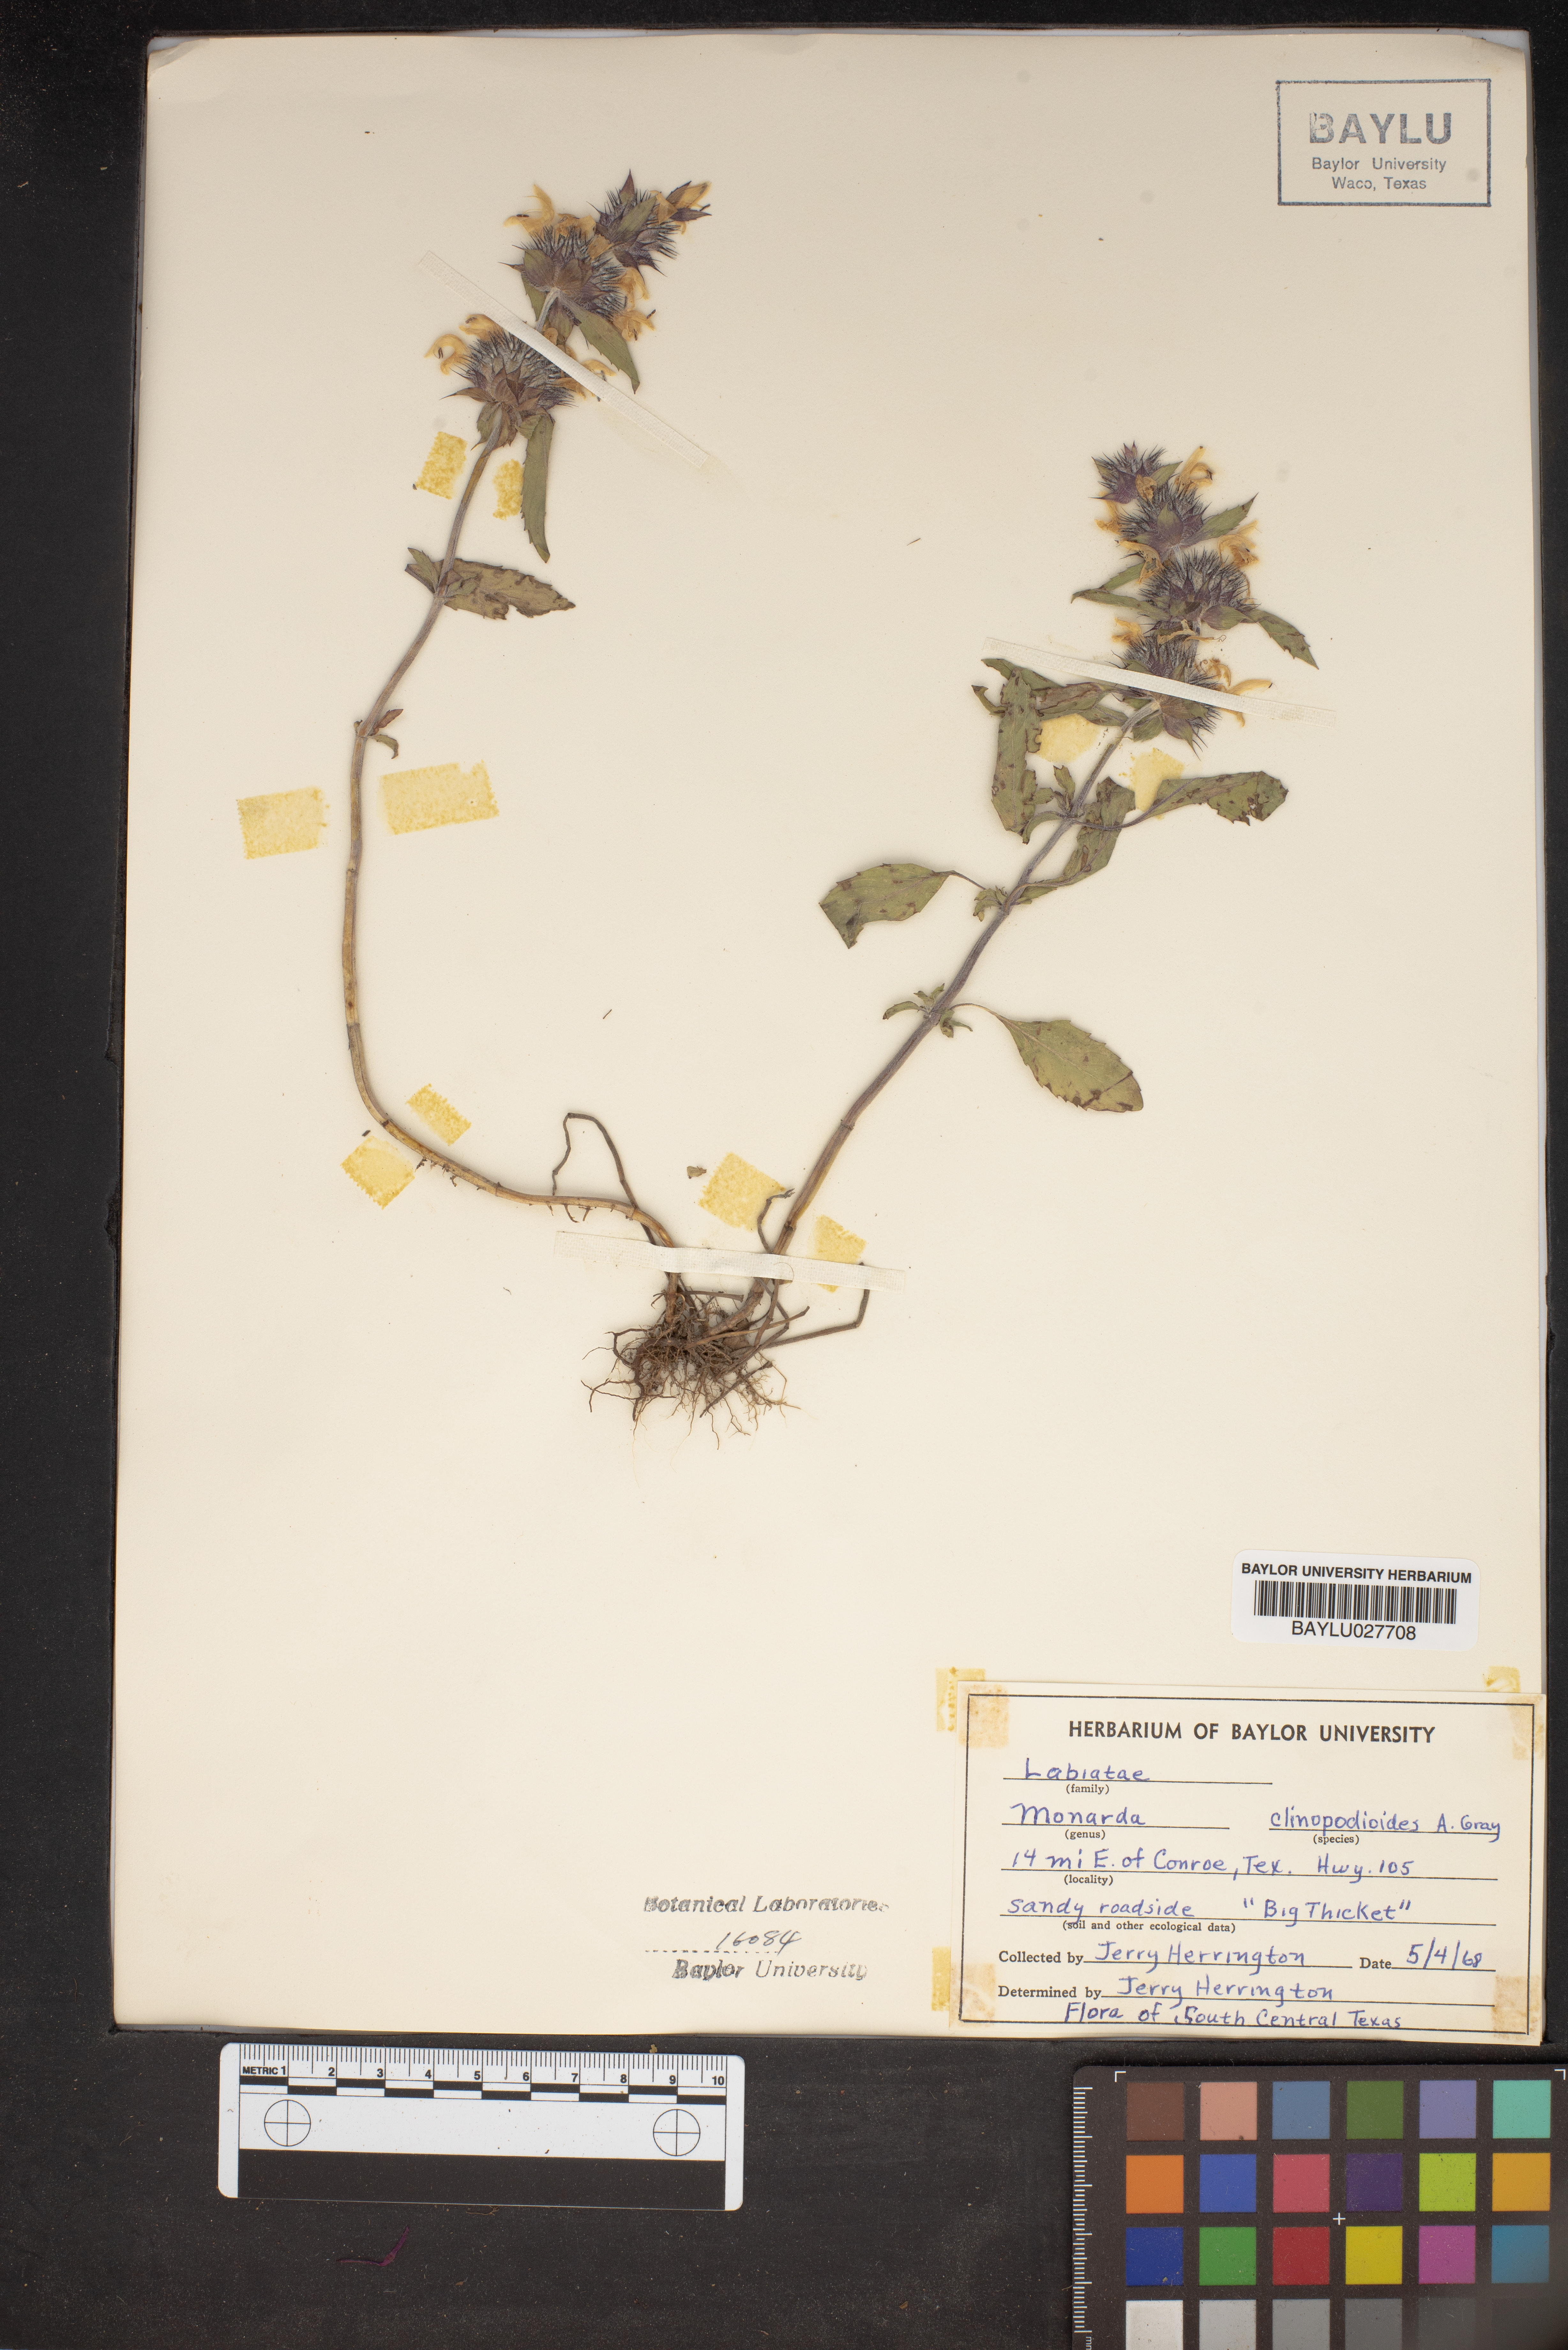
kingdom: Plantae
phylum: Tracheophyta
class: Magnoliopsida
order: Lamiales
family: Lamiaceae
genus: Monarda
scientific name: Monarda clinopodioides
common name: Basil beebalm
